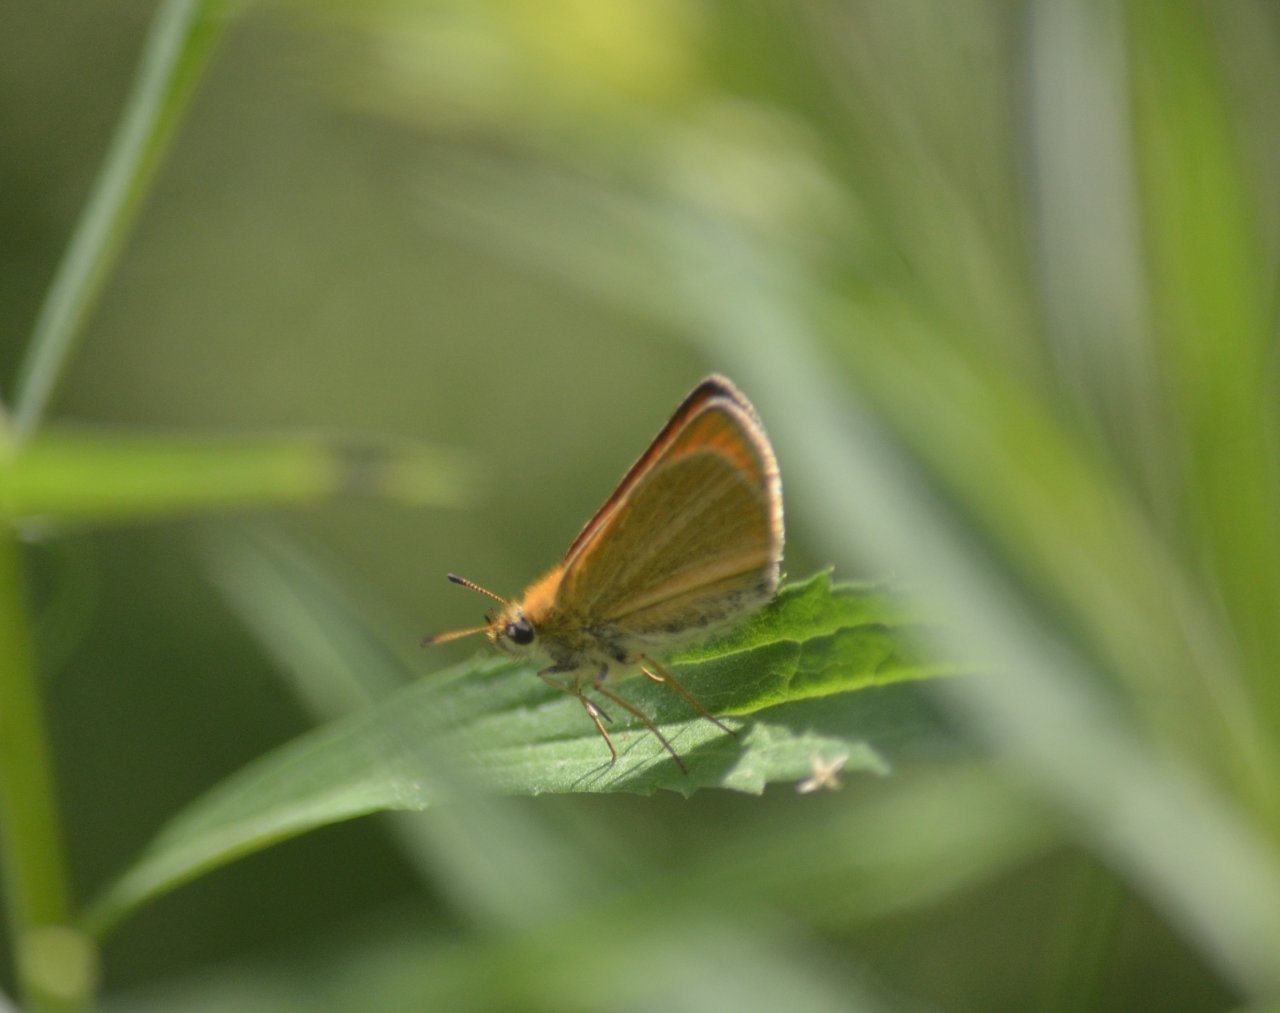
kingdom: Animalia
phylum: Arthropoda
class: Insecta
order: Lepidoptera
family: Hesperiidae
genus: Thymelicus
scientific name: Thymelicus lineola
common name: European Skipper
